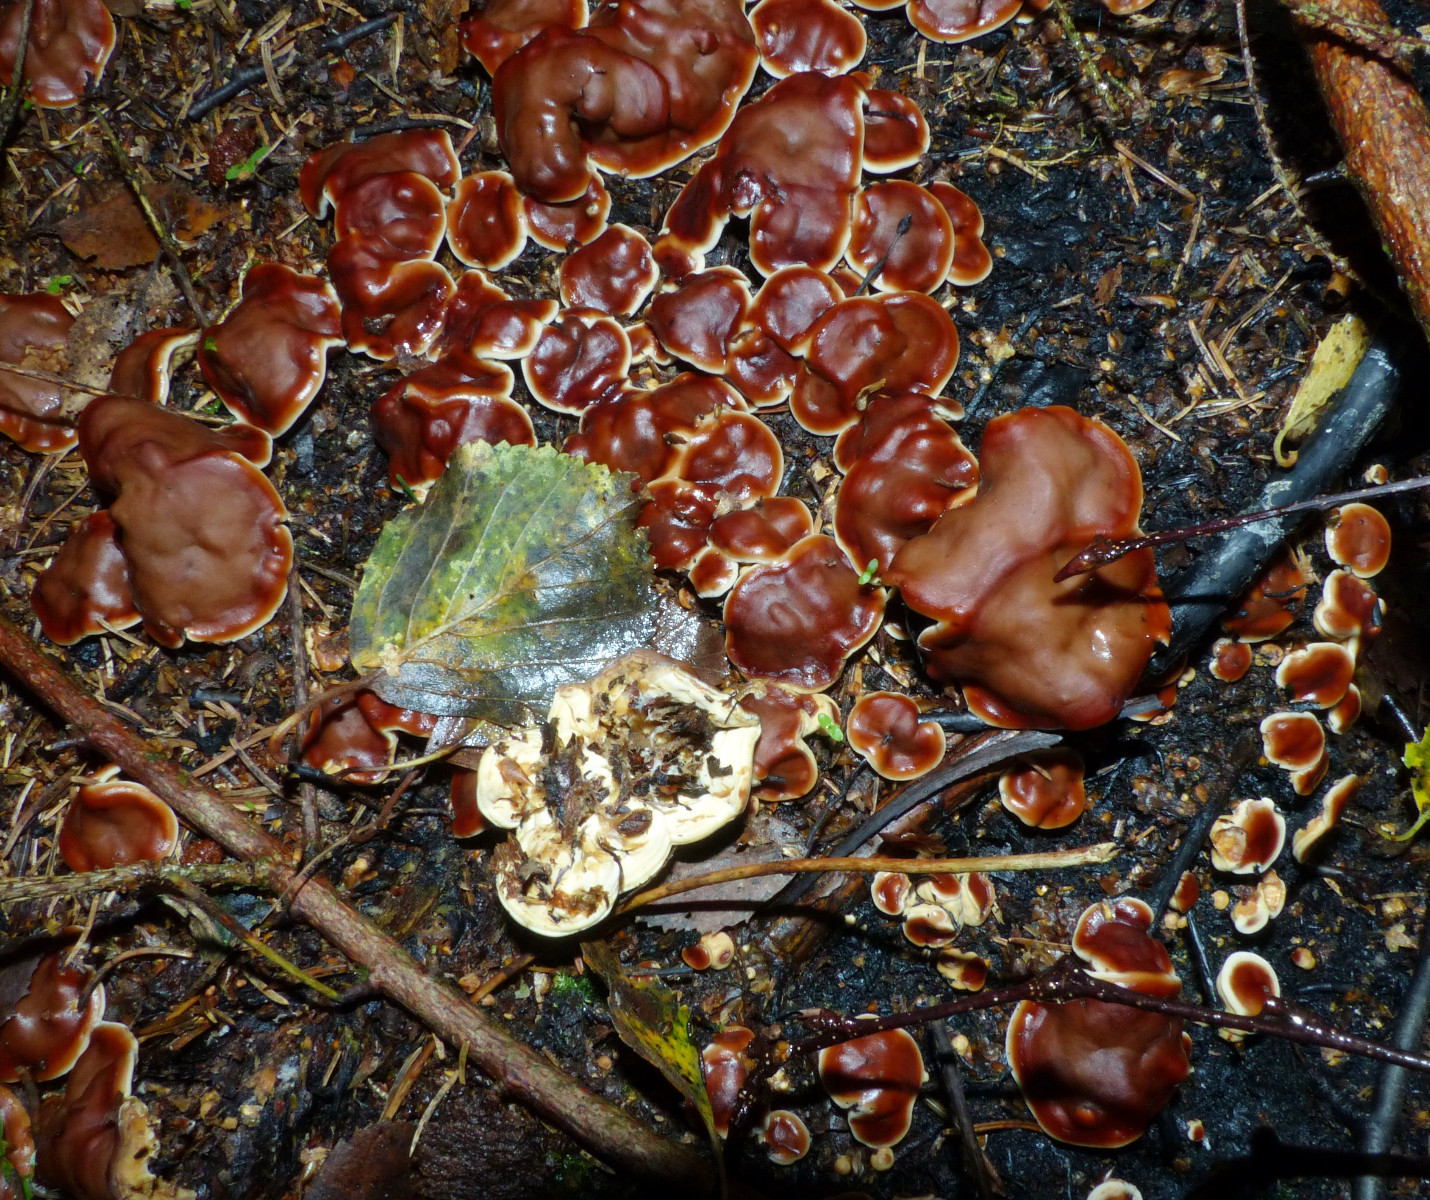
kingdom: Fungi
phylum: Ascomycota
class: Pezizomycetes
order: Pezizales
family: Rhizinaceae
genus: Rhizina
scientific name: Rhizina undulata
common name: rodmorkel
